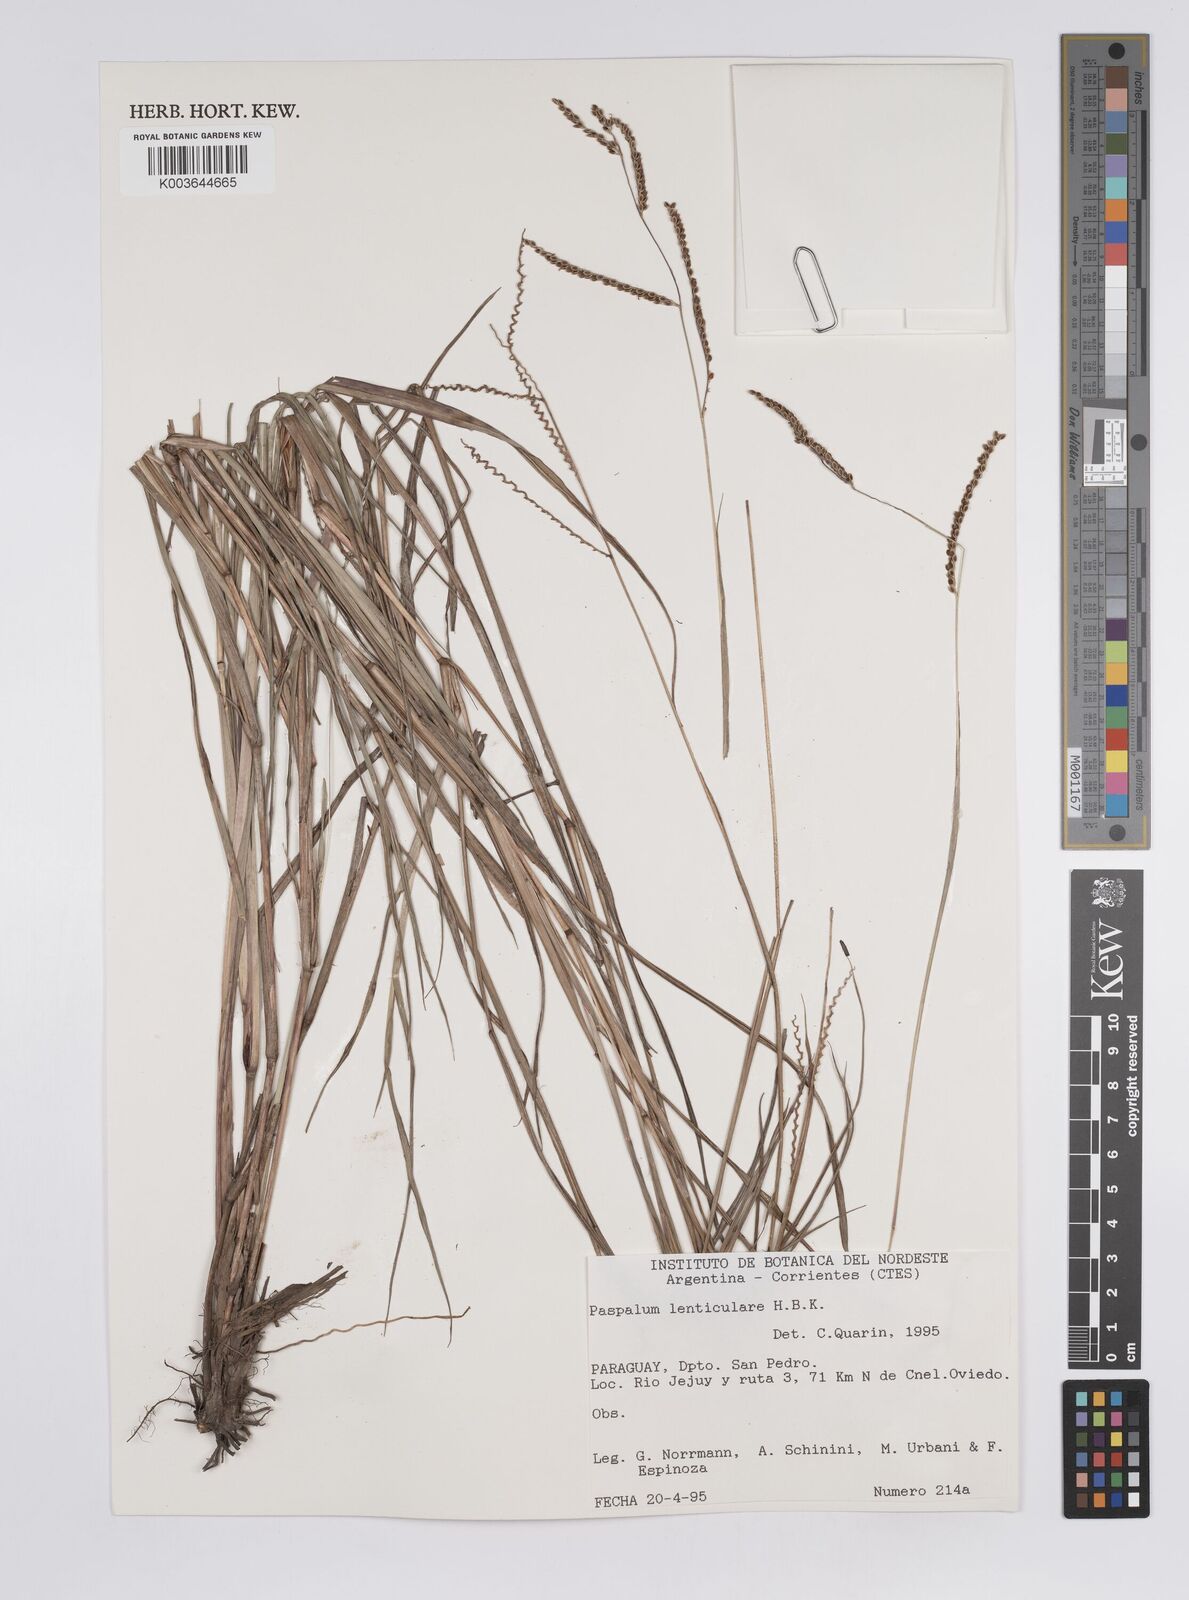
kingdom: Plantae
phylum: Tracheophyta
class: Liliopsida
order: Poales
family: Poaceae
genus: Paspalum
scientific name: Paspalum plicatulum
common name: Top paspalum
